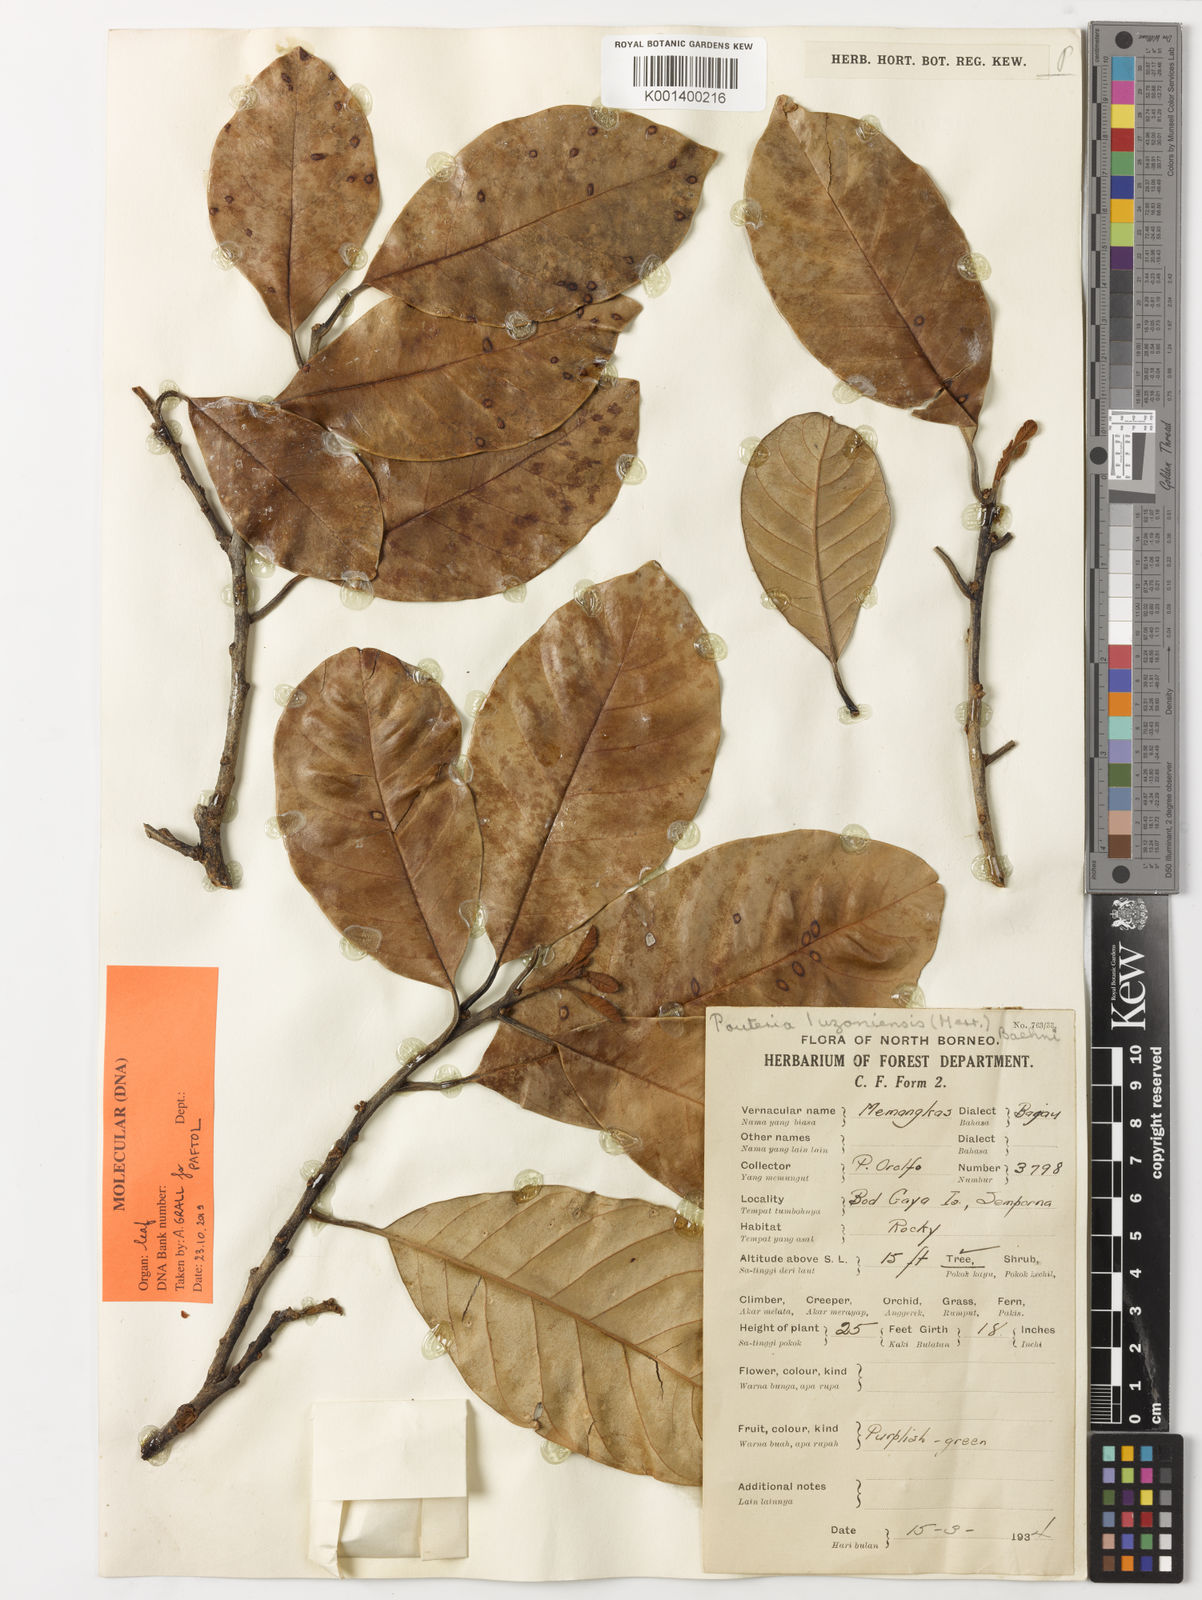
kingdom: Plantae
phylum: Tracheophyta
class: Magnoliopsida
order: Ericales
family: Sapotaceae
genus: Sersalisia
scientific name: Sersalisia luzoniensis
